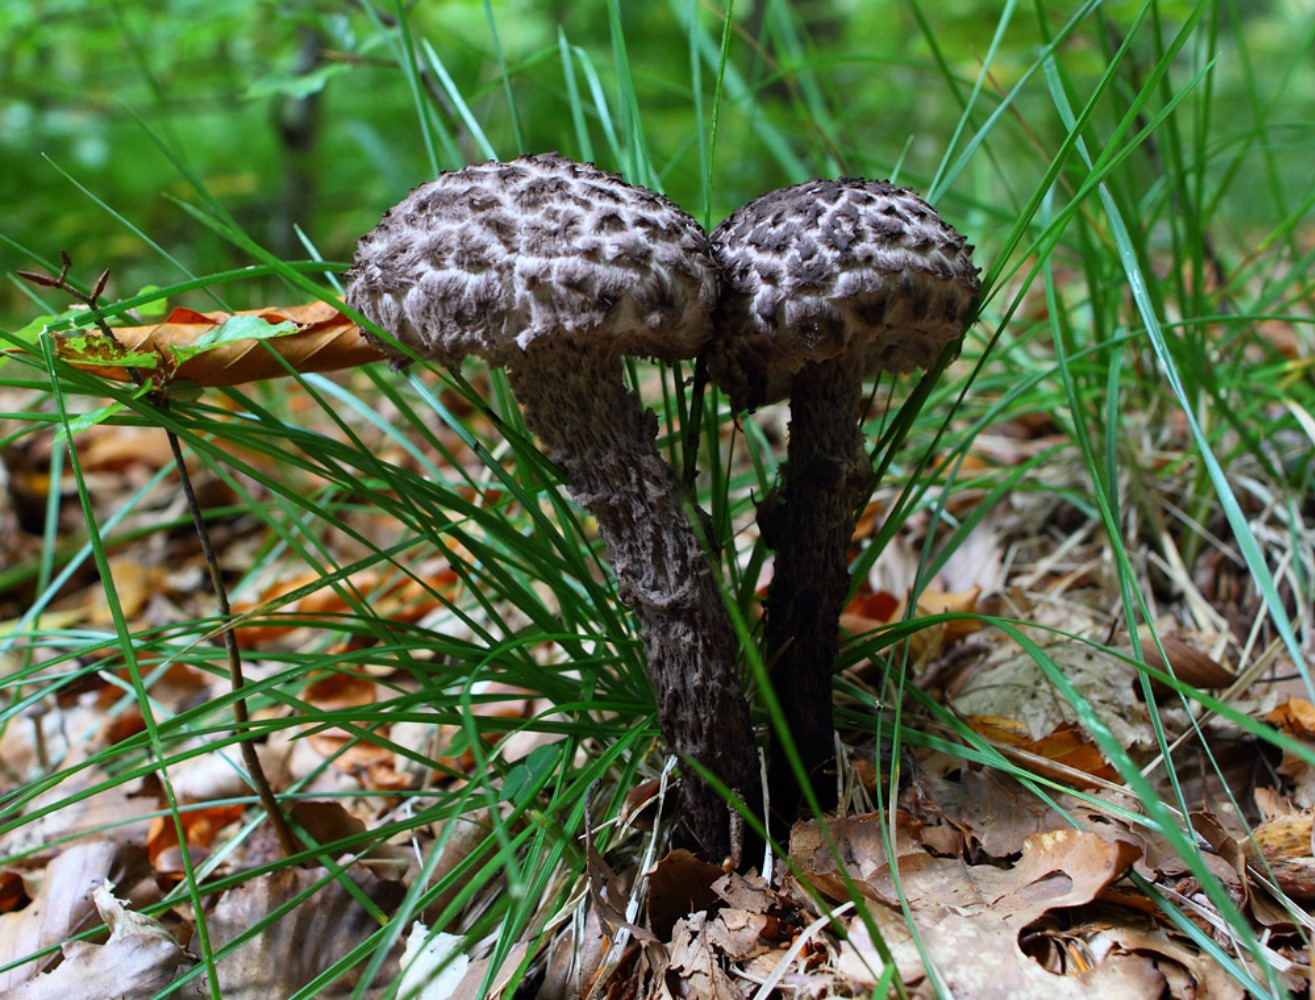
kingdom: Fungi
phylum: Basidiomycota
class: Agaricomycetes
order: Boletales
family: Boletaceae
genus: Strobilomyces
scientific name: Strobilomyces strobilaceus
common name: koglerørhat
